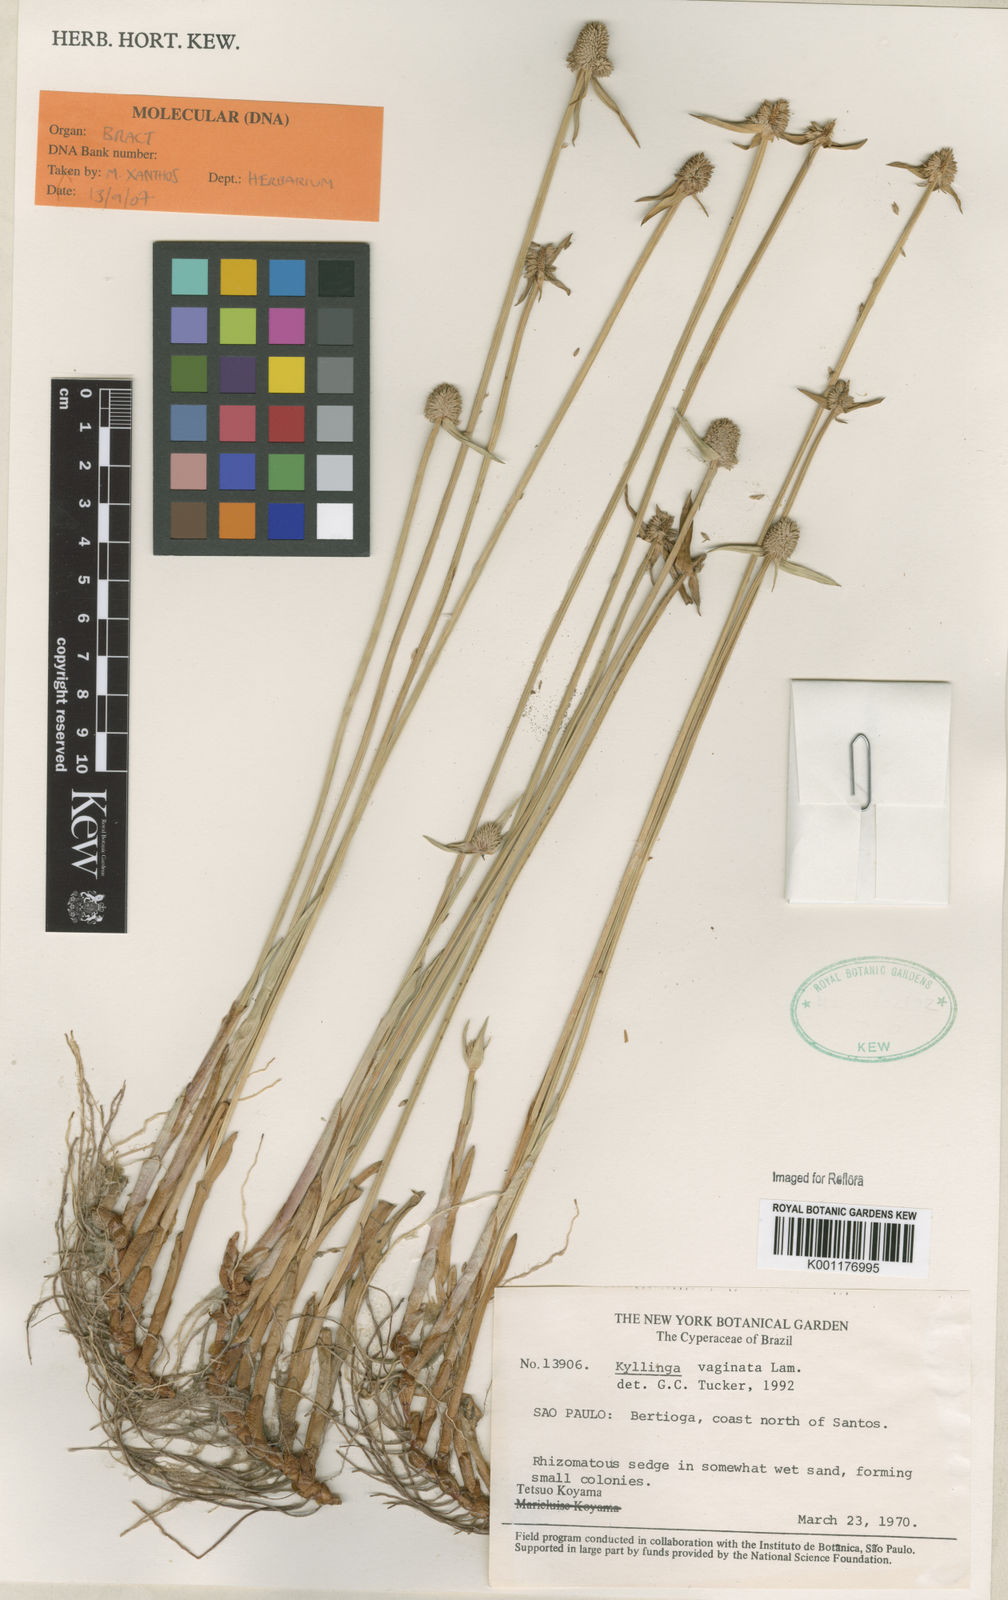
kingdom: Plantae
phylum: Tracheophyta
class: Liliopsida
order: Poales
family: Cyperaceae
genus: Cyperus
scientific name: Cyperus obtusatus
